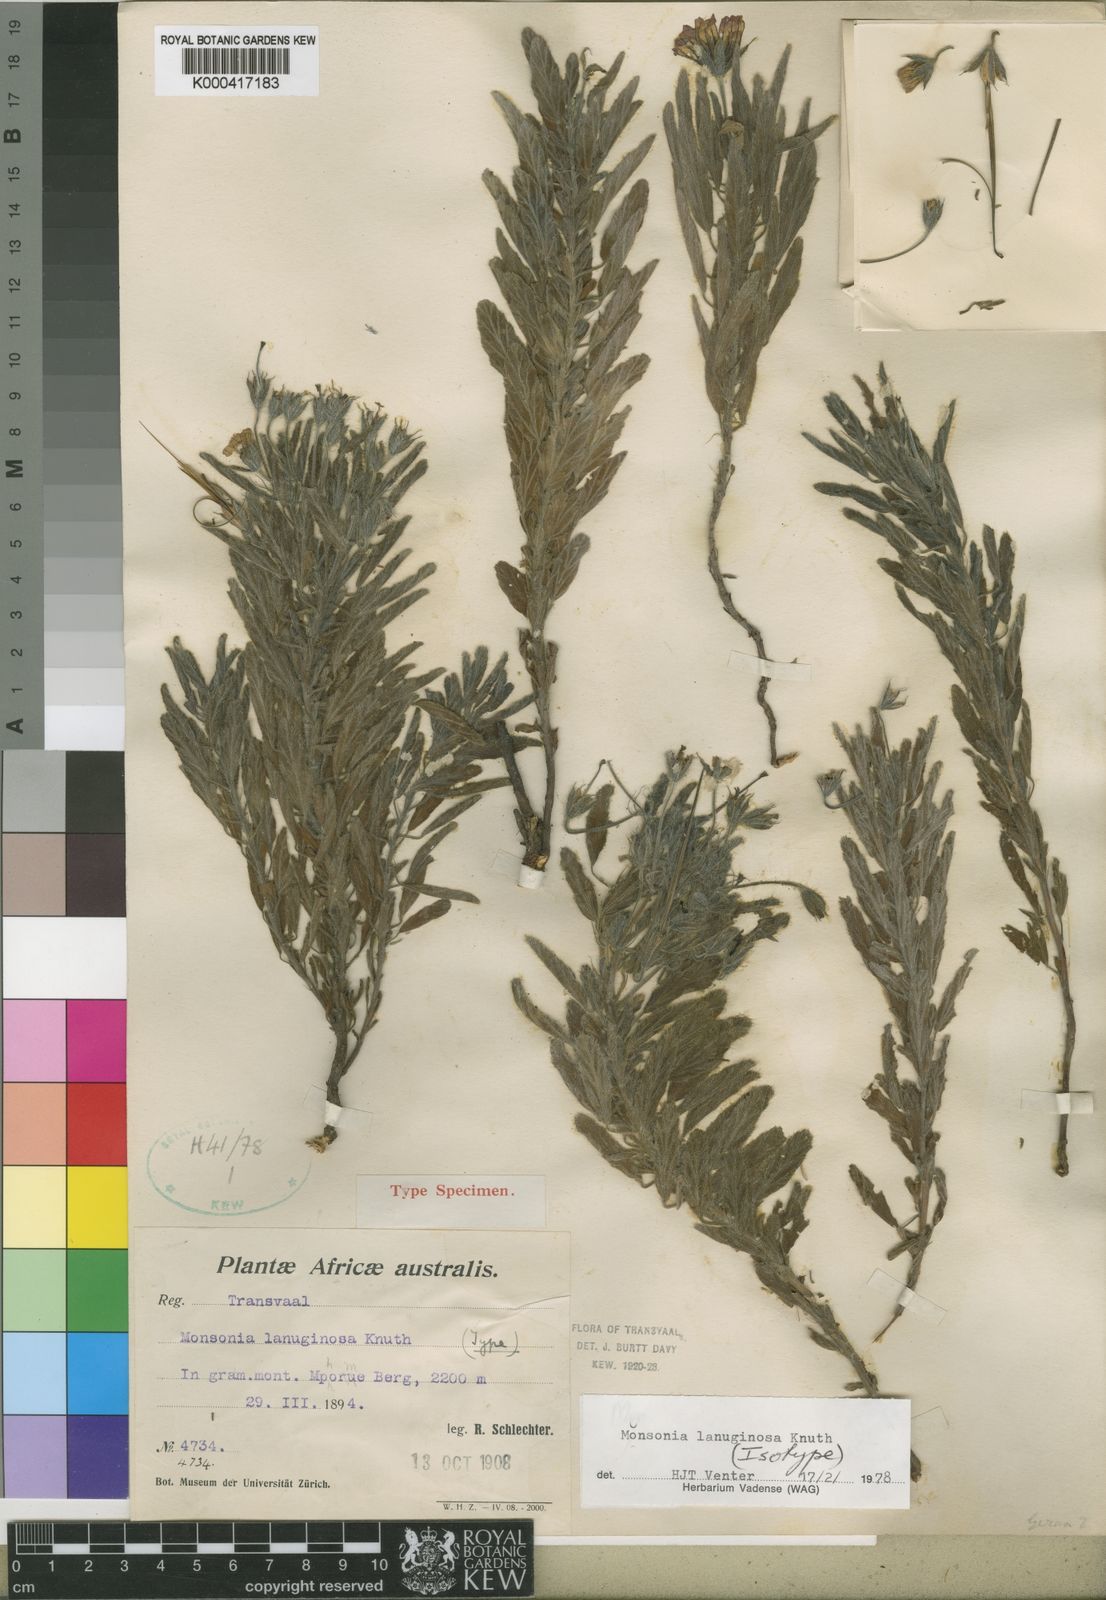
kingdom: Plantae
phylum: Tracheophyta
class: Magnoliopsida
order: Geraniales
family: Geraniaceae
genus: Monsonia
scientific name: Monsonia lanuginosa
